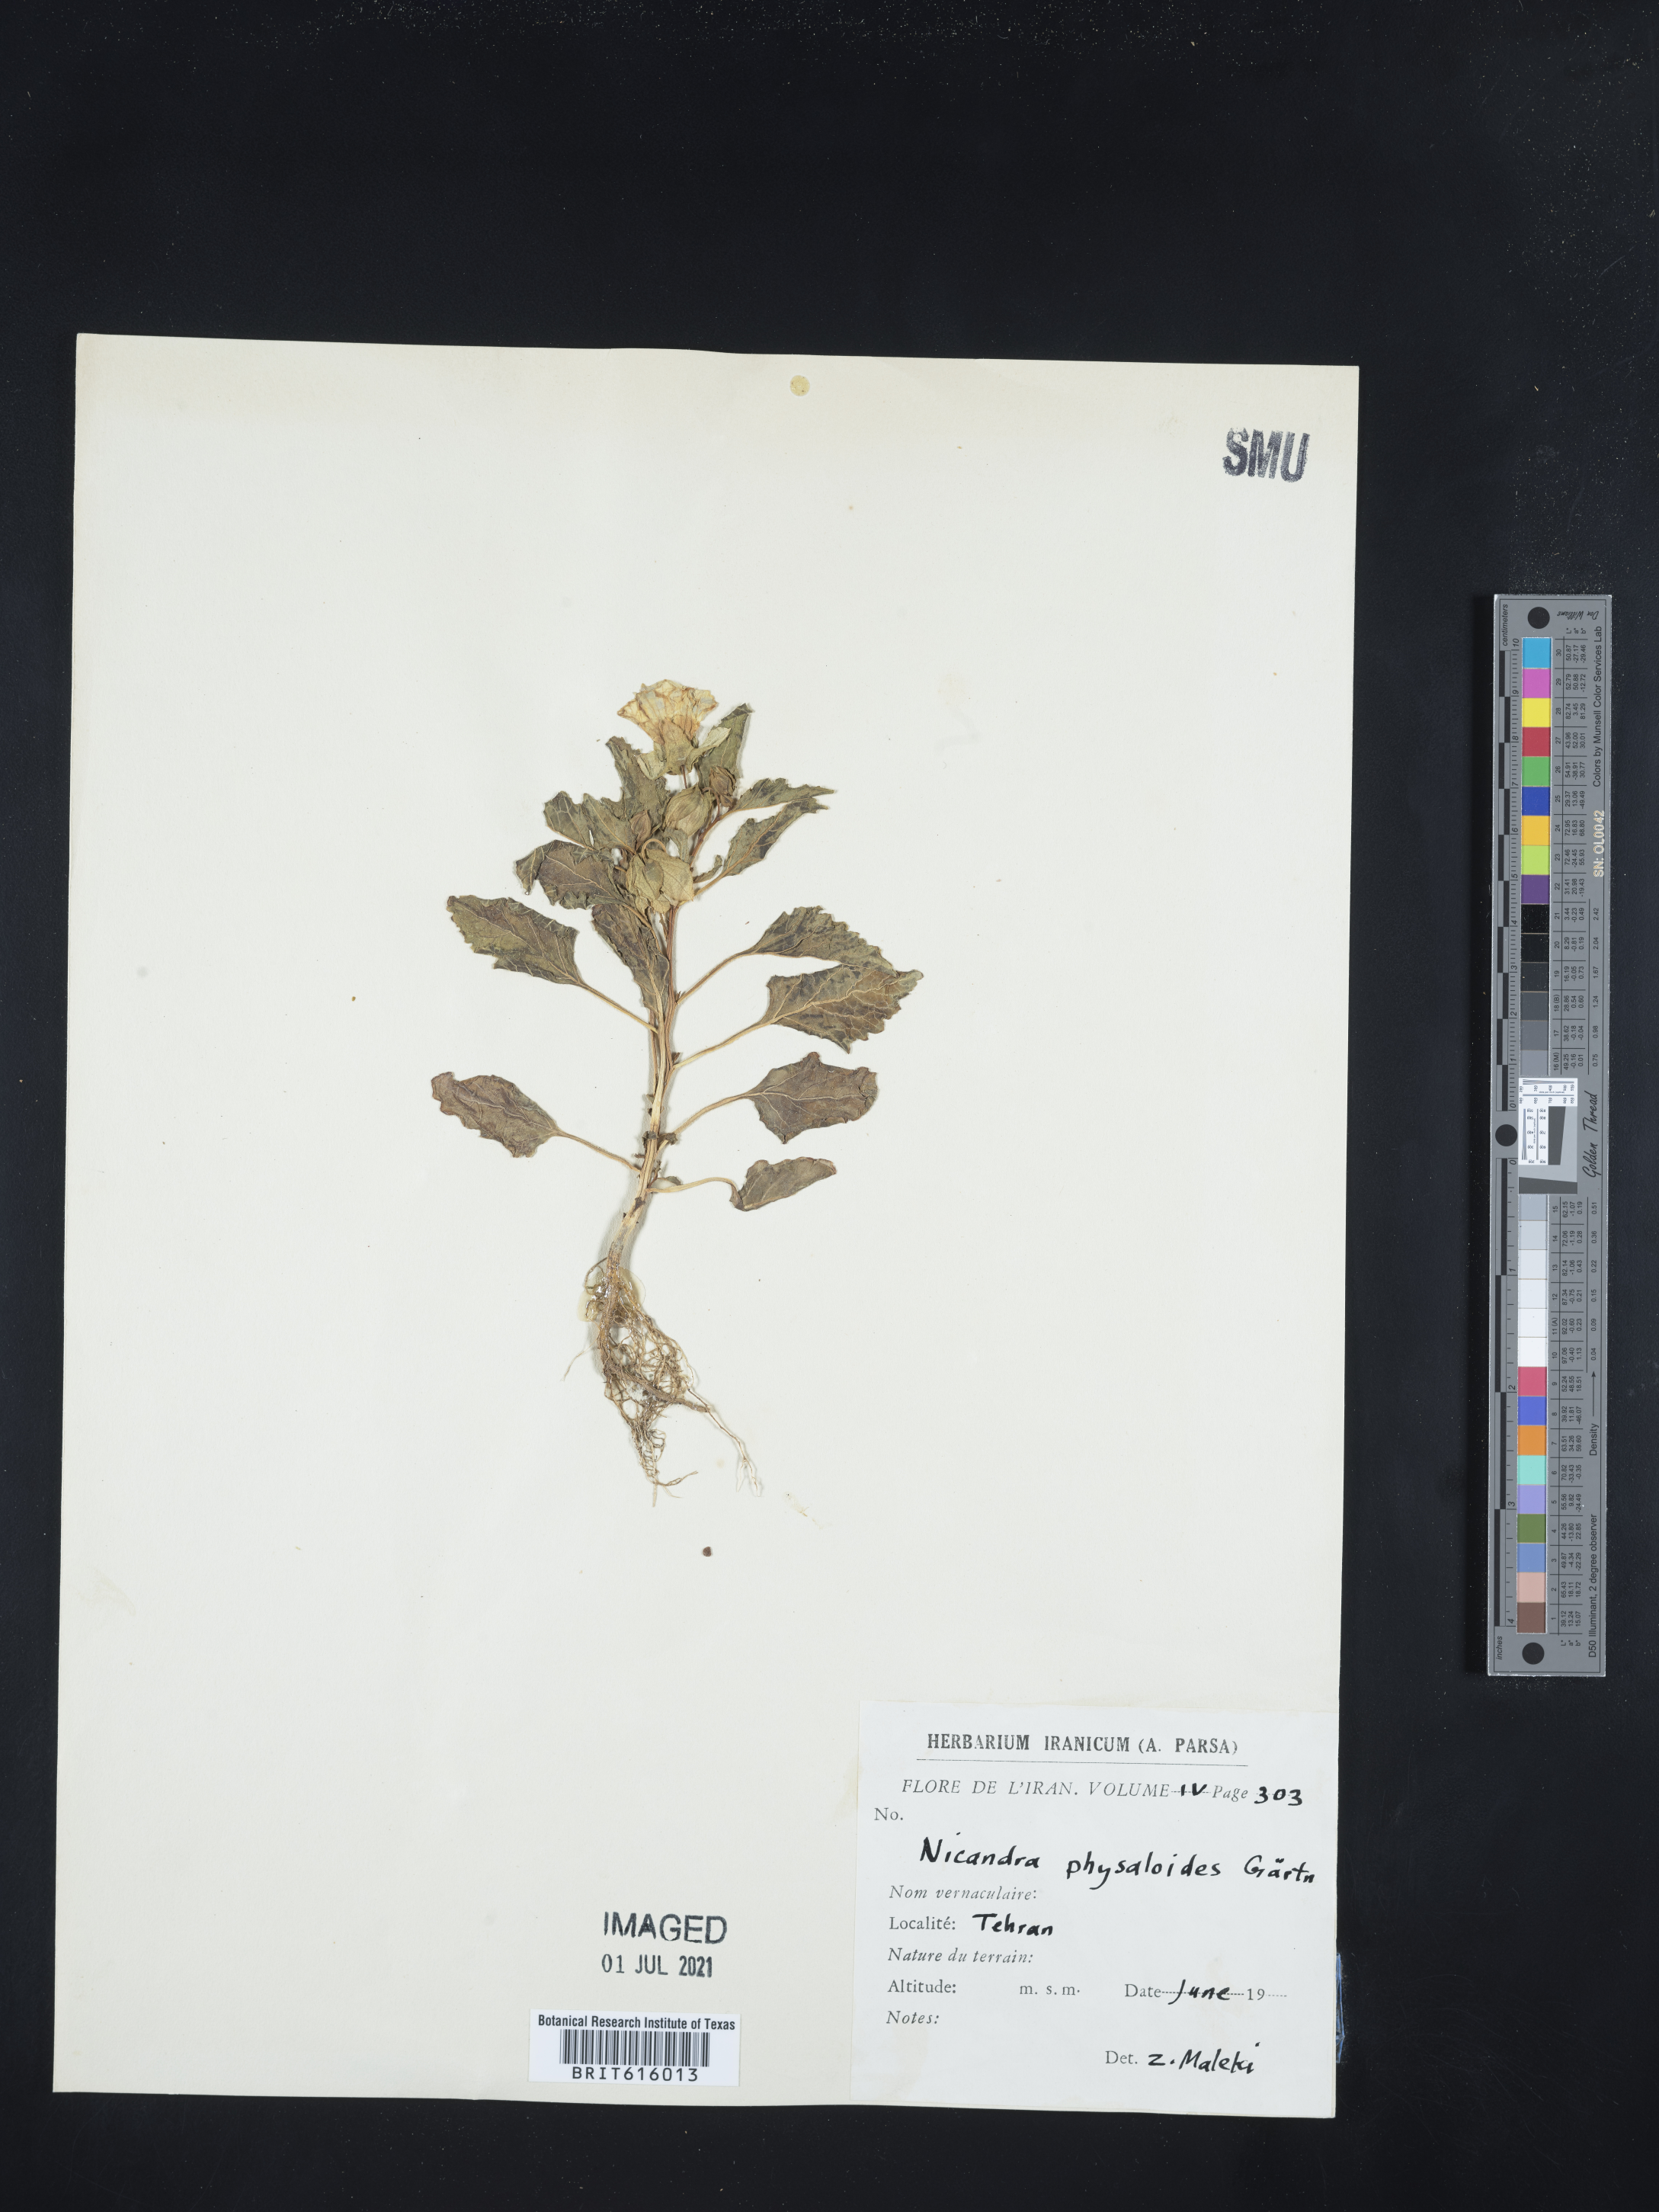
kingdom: Plantae
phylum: Tracheophyta
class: Magnoliopsida
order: Solanales
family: Solanaceae
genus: Nicandra
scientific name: Nicandra physalodes
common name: Apple-of-peru
